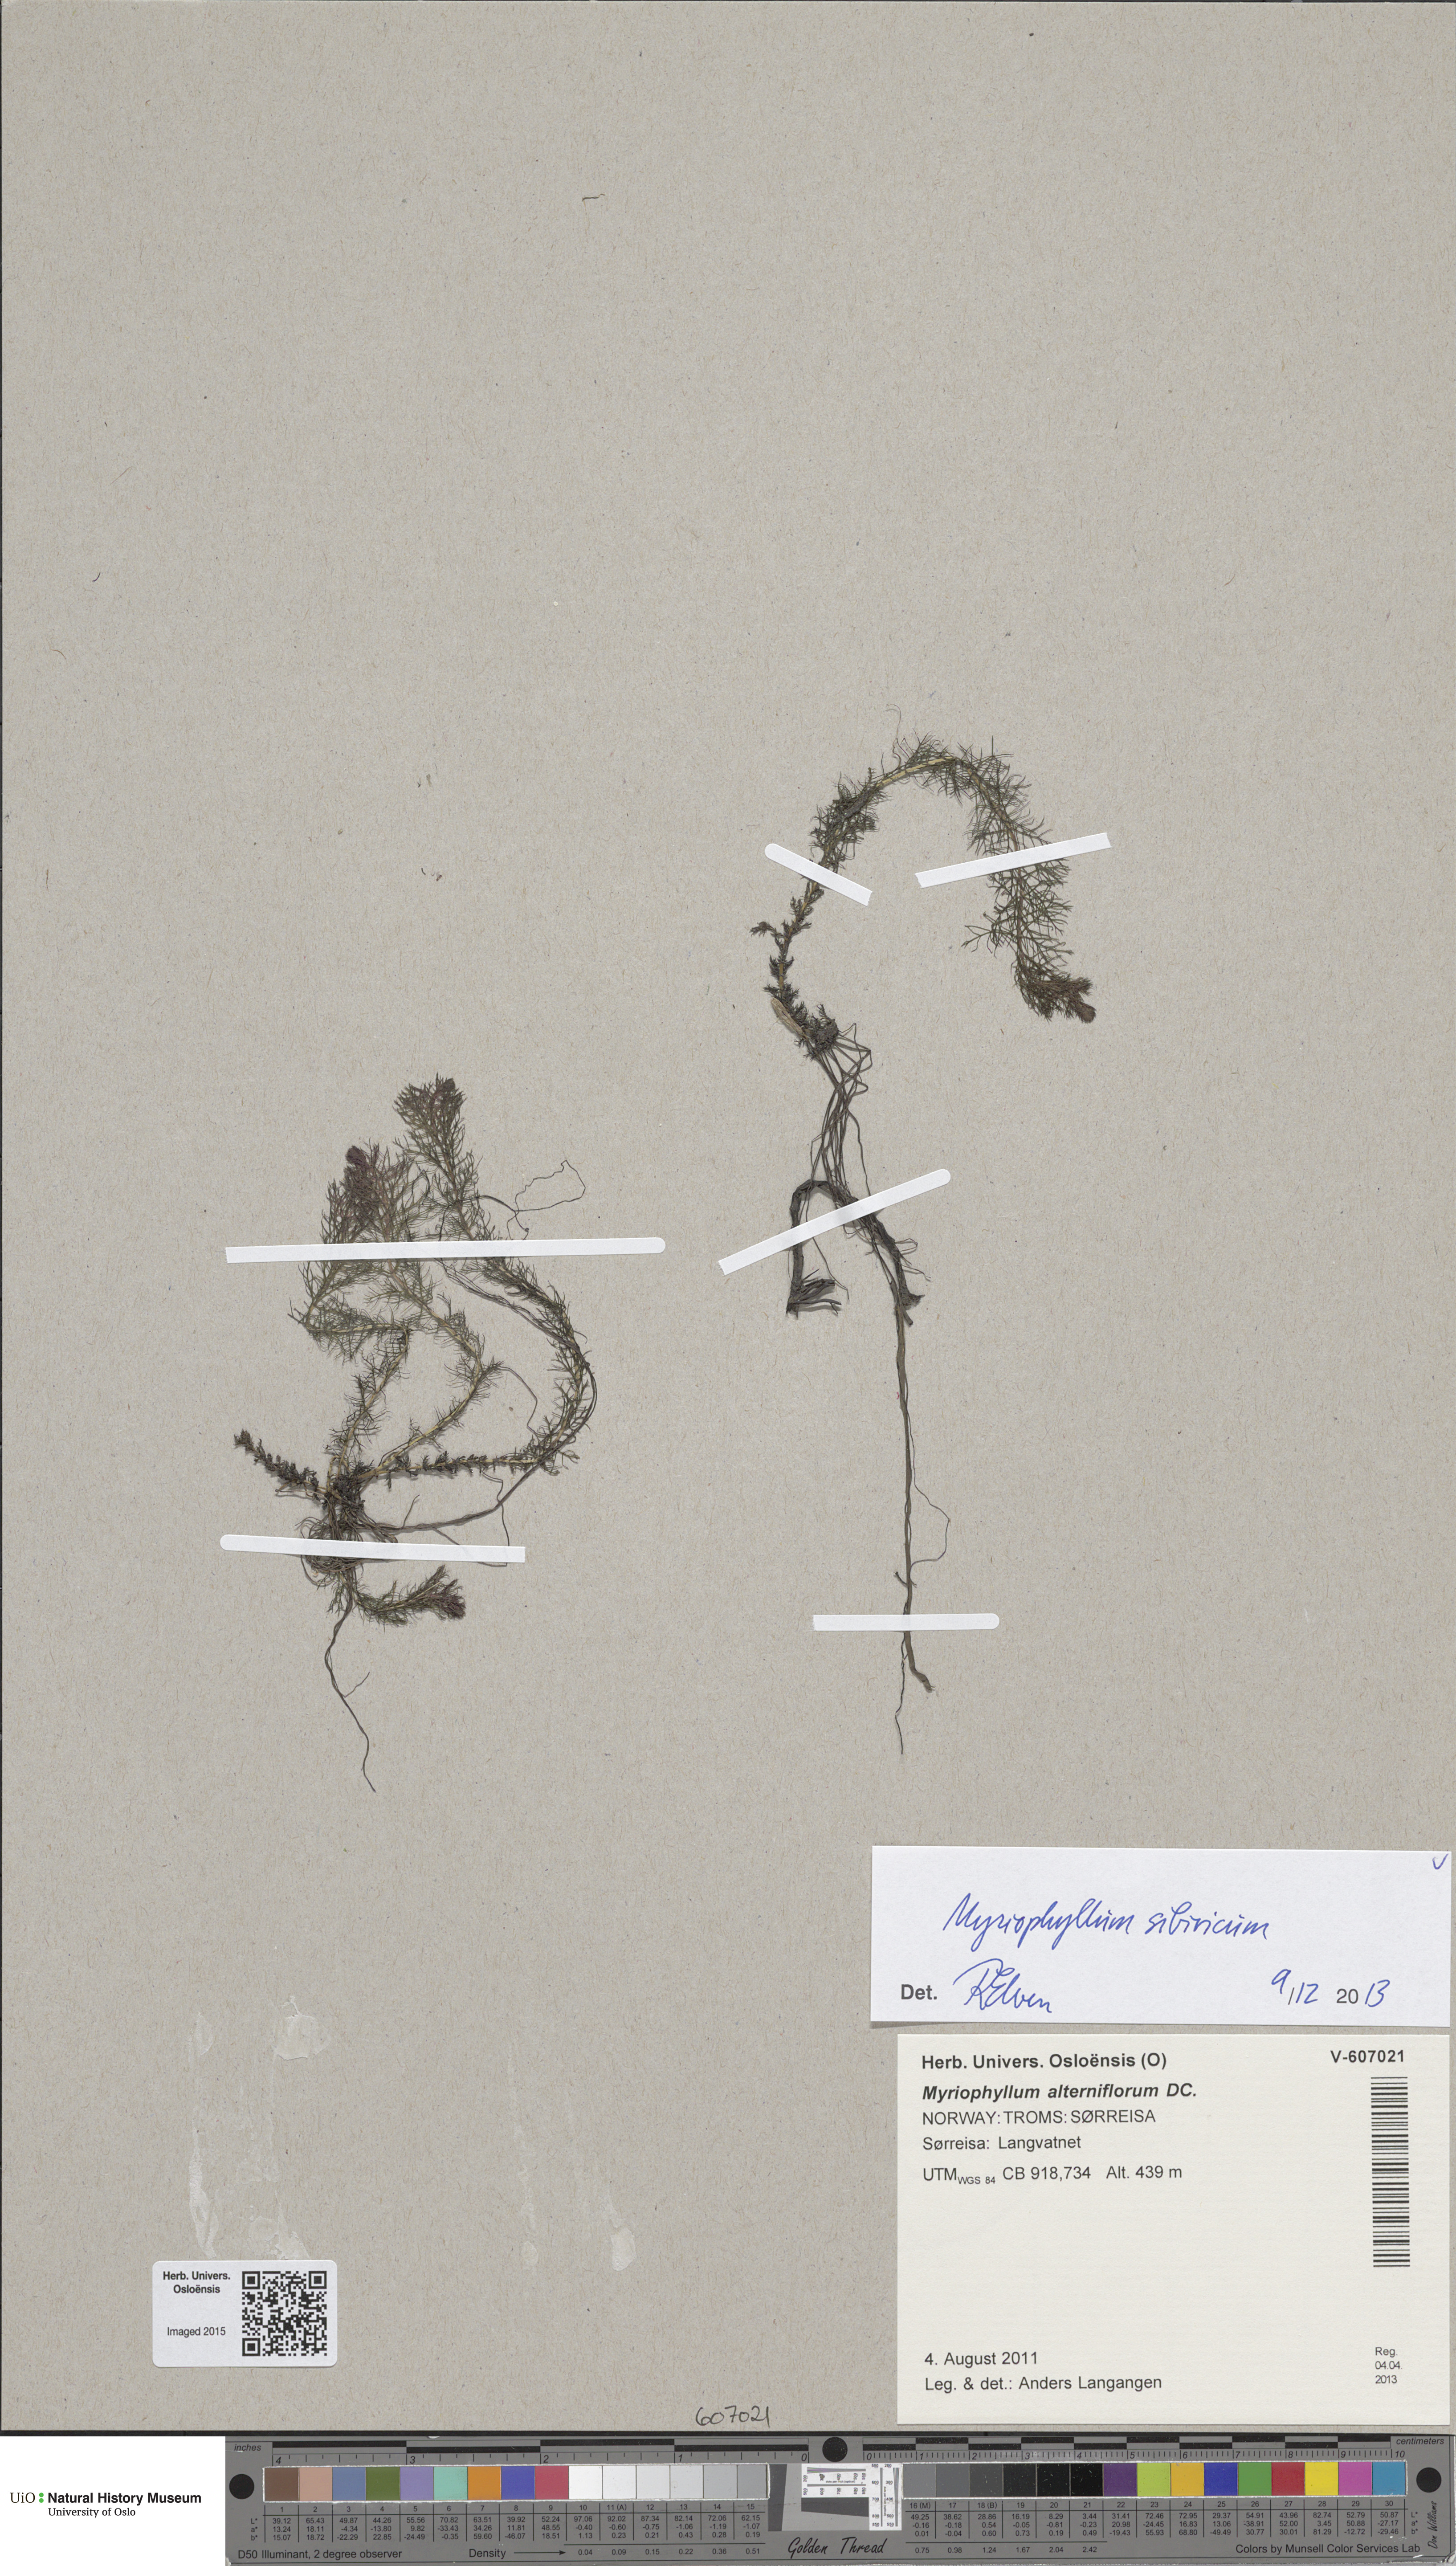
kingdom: Plantae
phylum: Tracheophyta
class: Magnoliopsida
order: Saxifragales
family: Haloragaceae
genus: Myriophyllum
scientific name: Myriophyllum sibiricum
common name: Siberian water-milfoil
